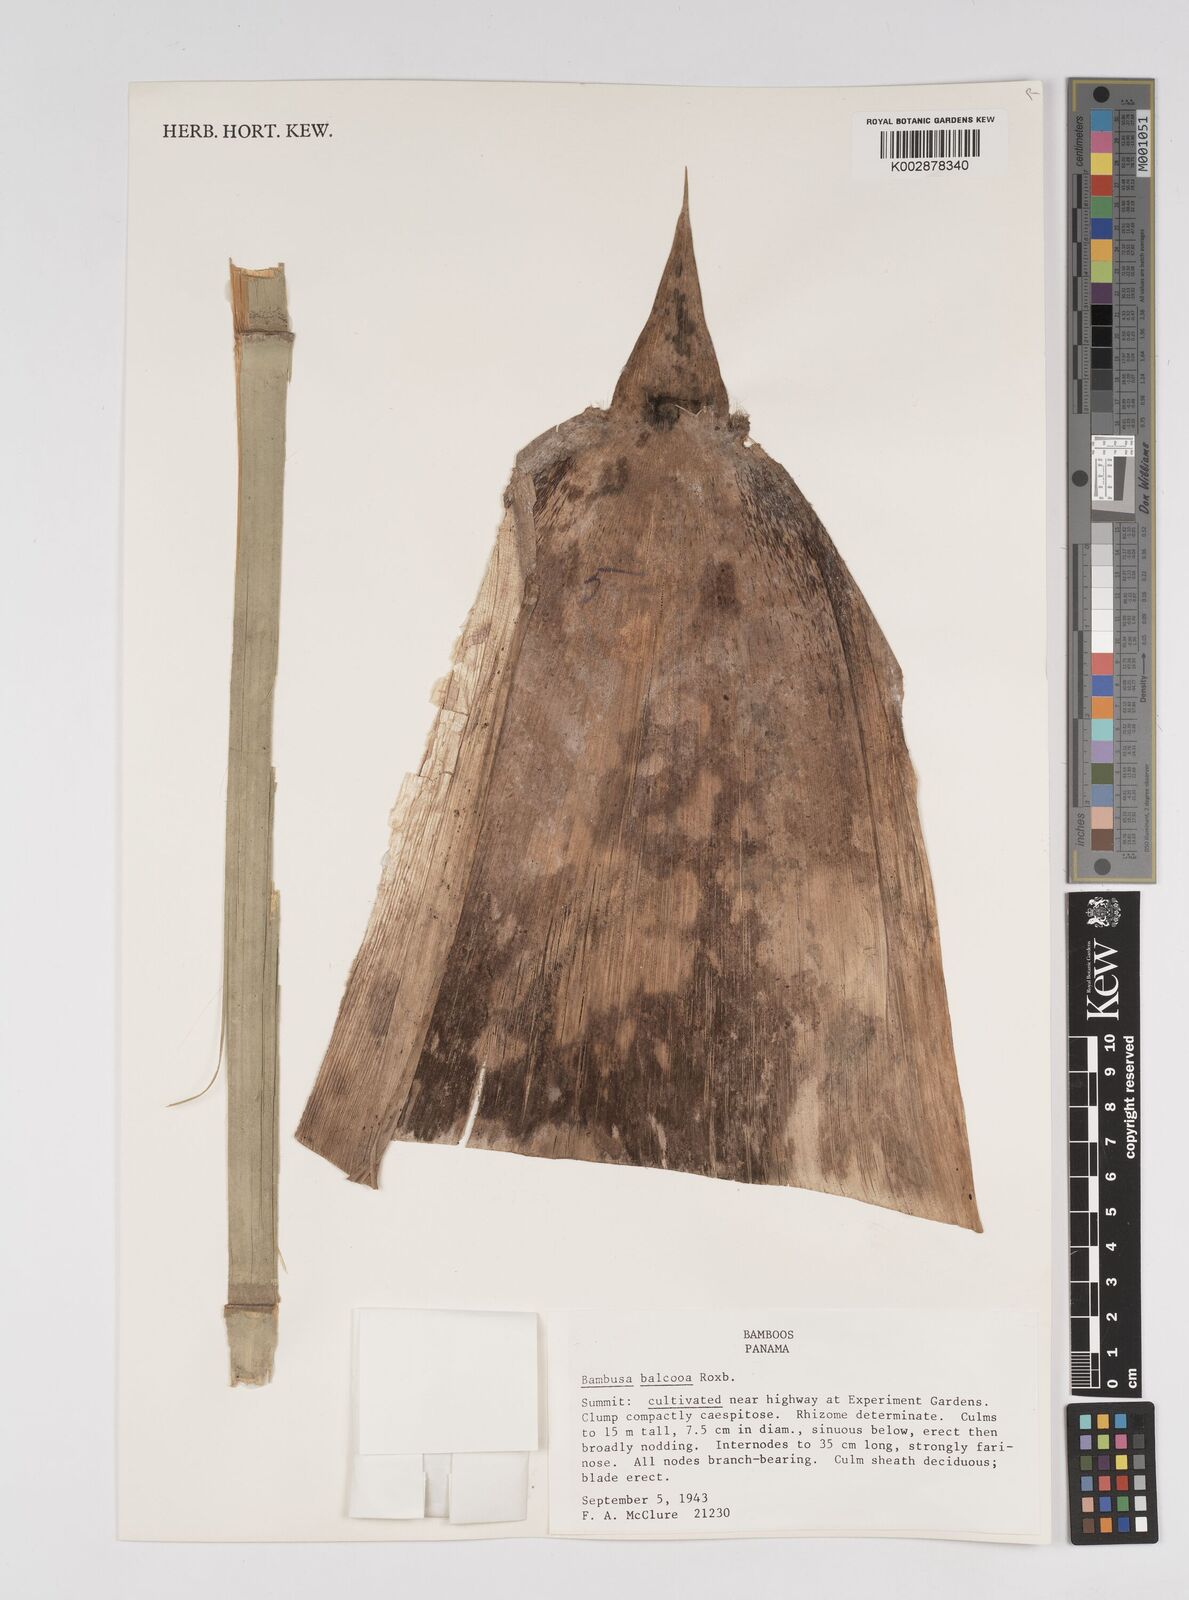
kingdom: Plantae
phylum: Tracheophyta
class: Liliopsida
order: Poales
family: Poaceae
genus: Bambusa
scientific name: Bambusa balcooa
